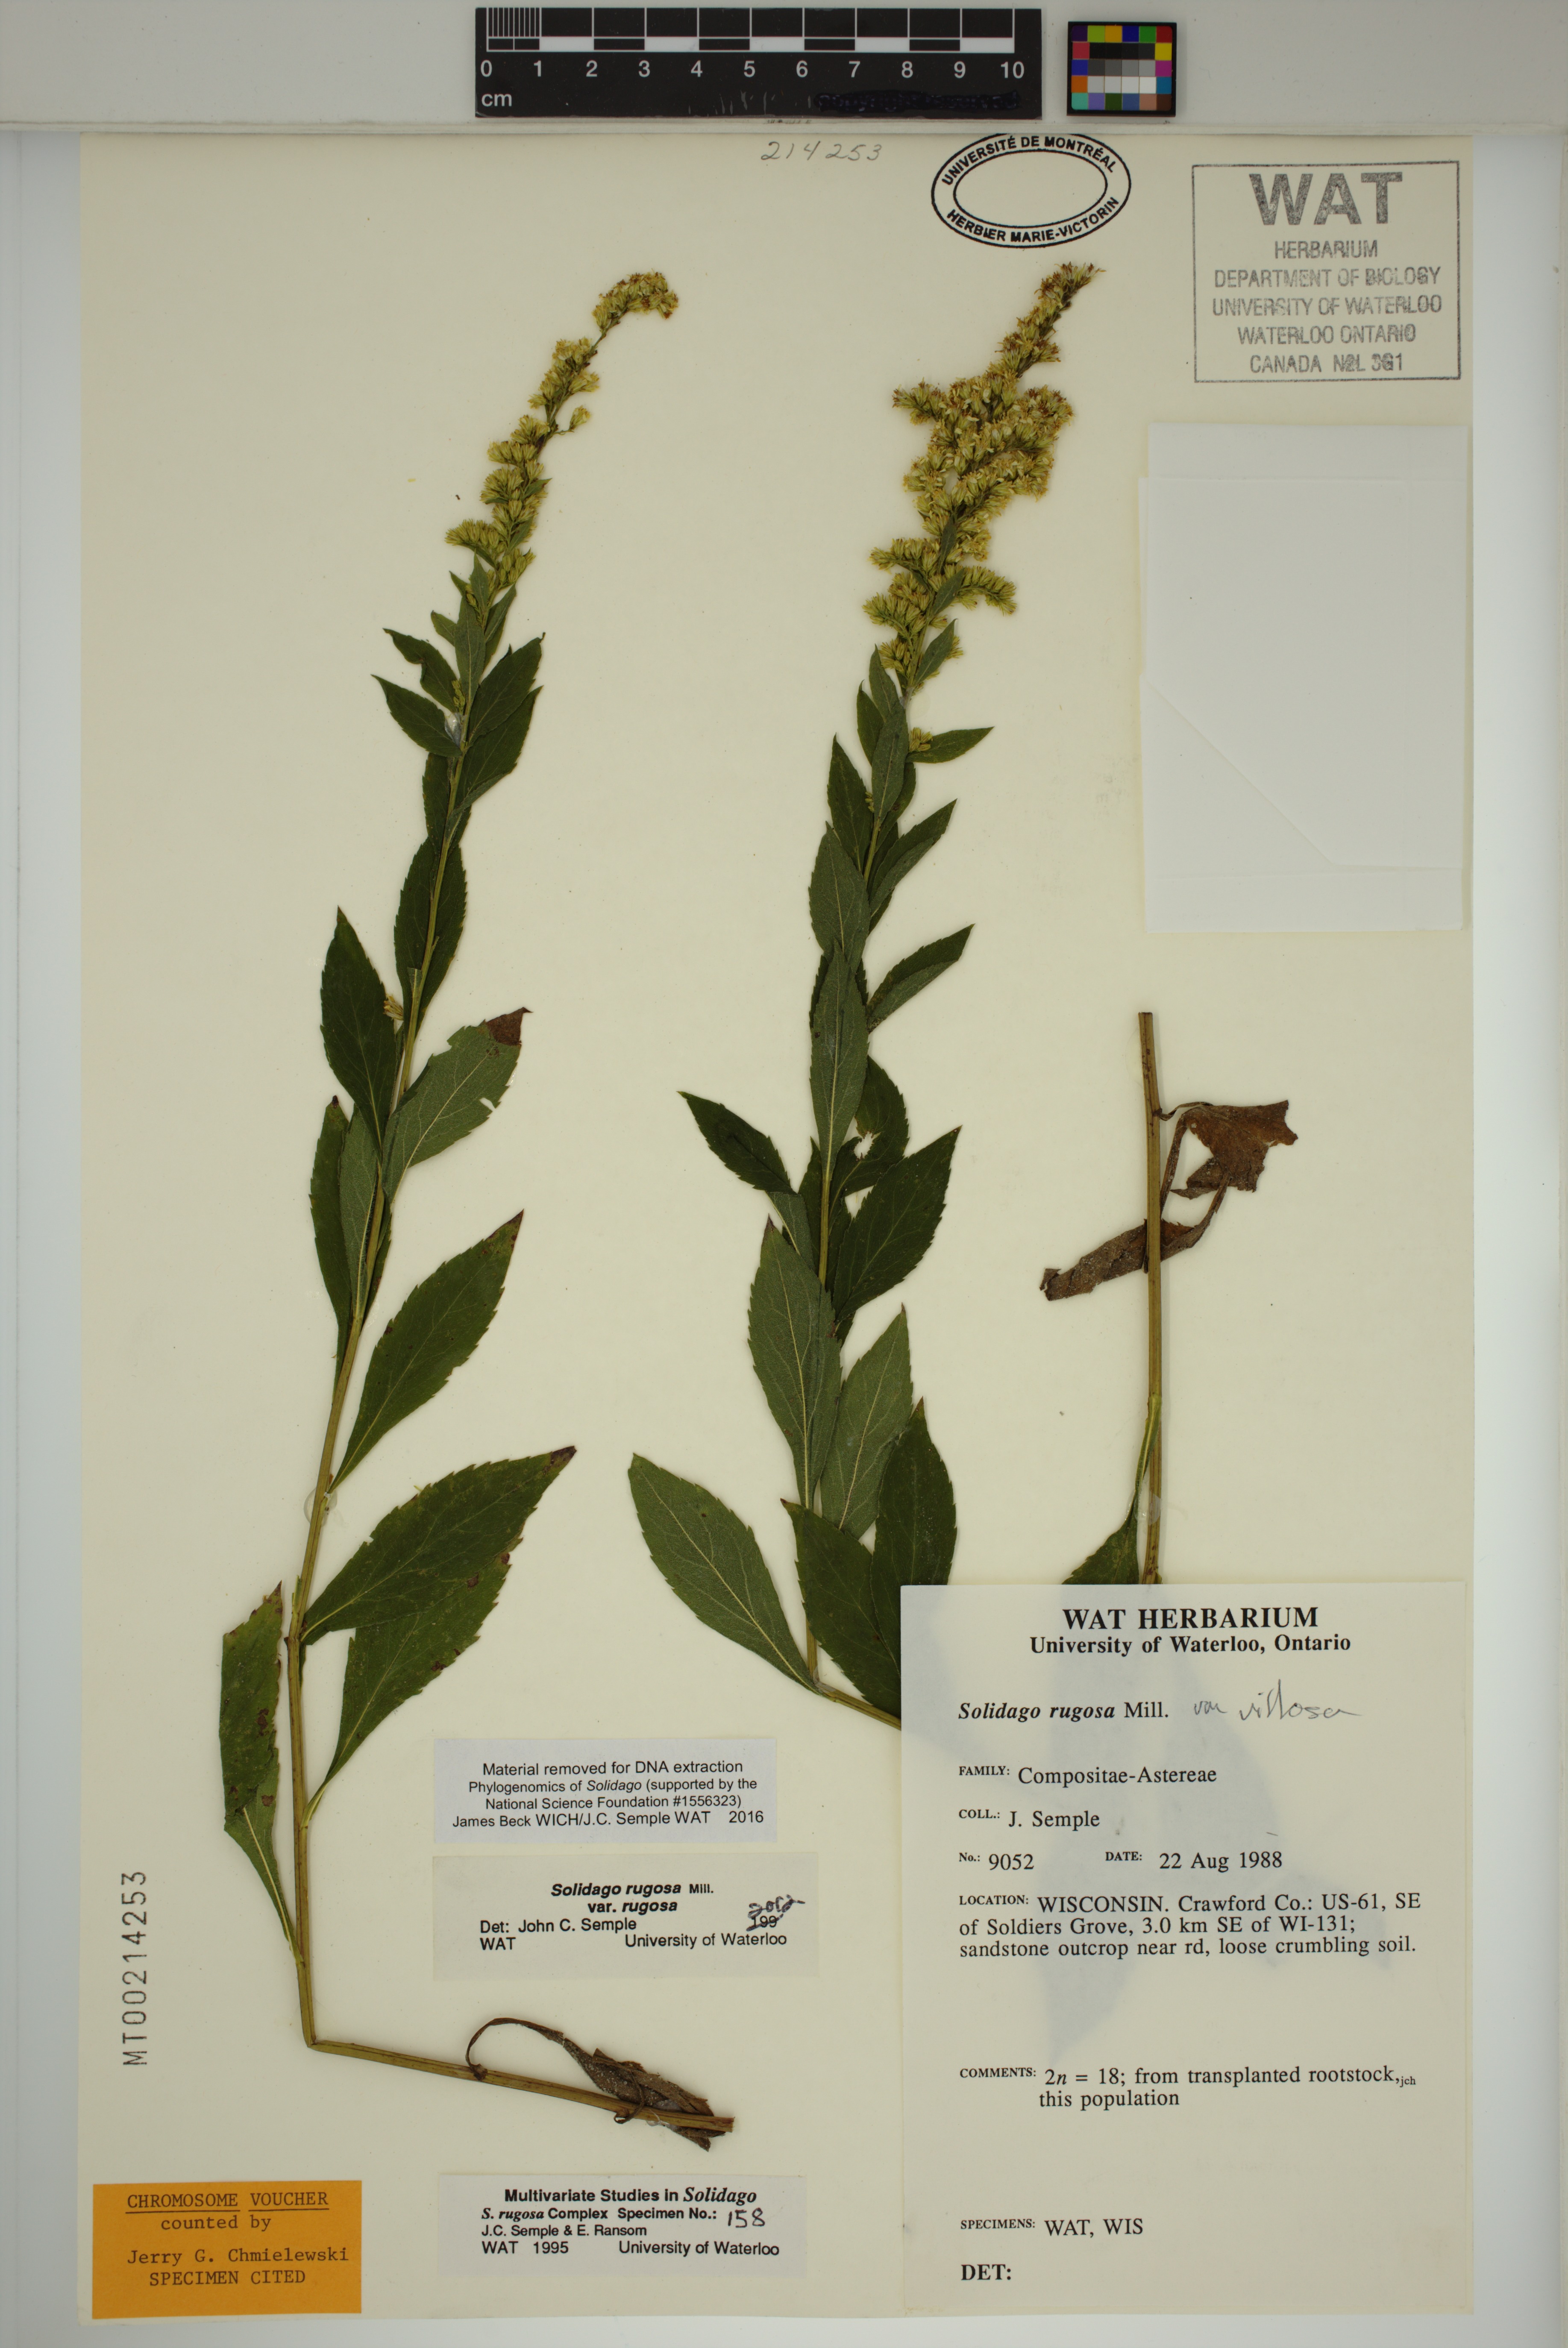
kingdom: Plantae
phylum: Tracheophyta
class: Magnoliopsida
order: Asterales
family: Asteraceae
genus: Solidago
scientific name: Solidago ulmifolia
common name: Elm-leaf goldenrod
